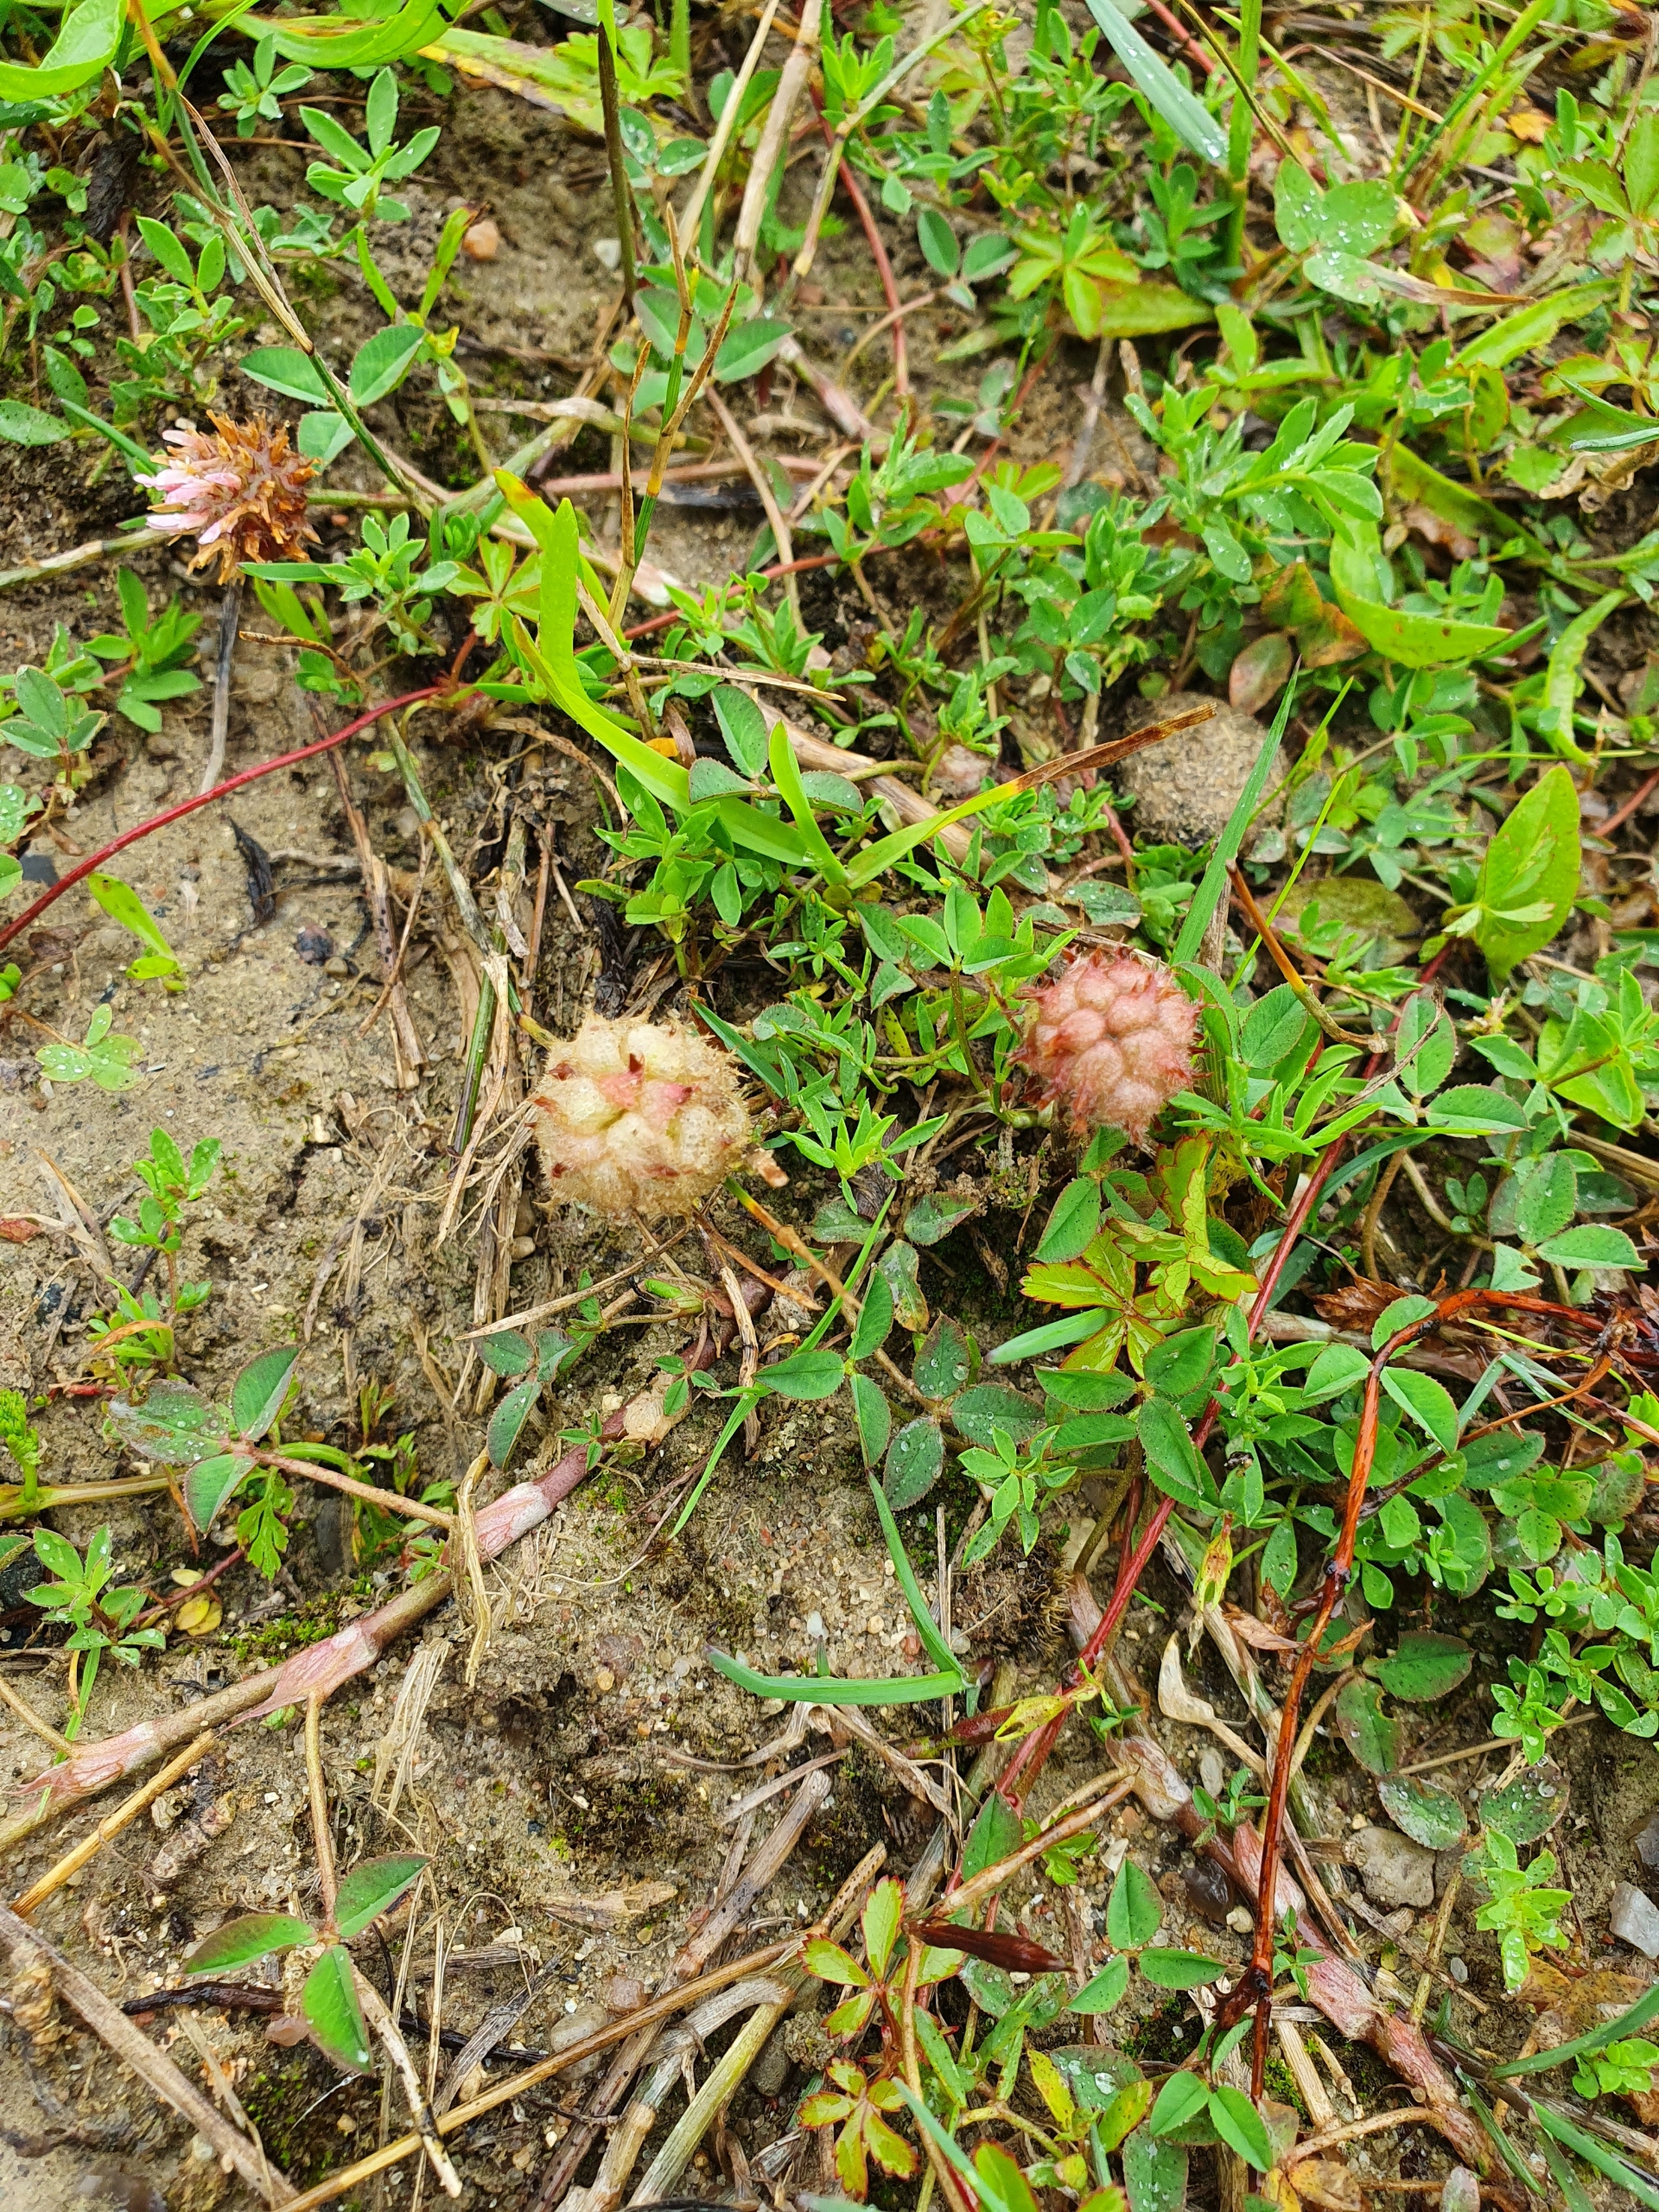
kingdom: Plantae
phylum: Tracheophyta
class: Magnoliopsida
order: Fabales
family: Fabaceae
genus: Trifolium
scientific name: Trifolium fragiferum
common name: Jordbær-kløver
